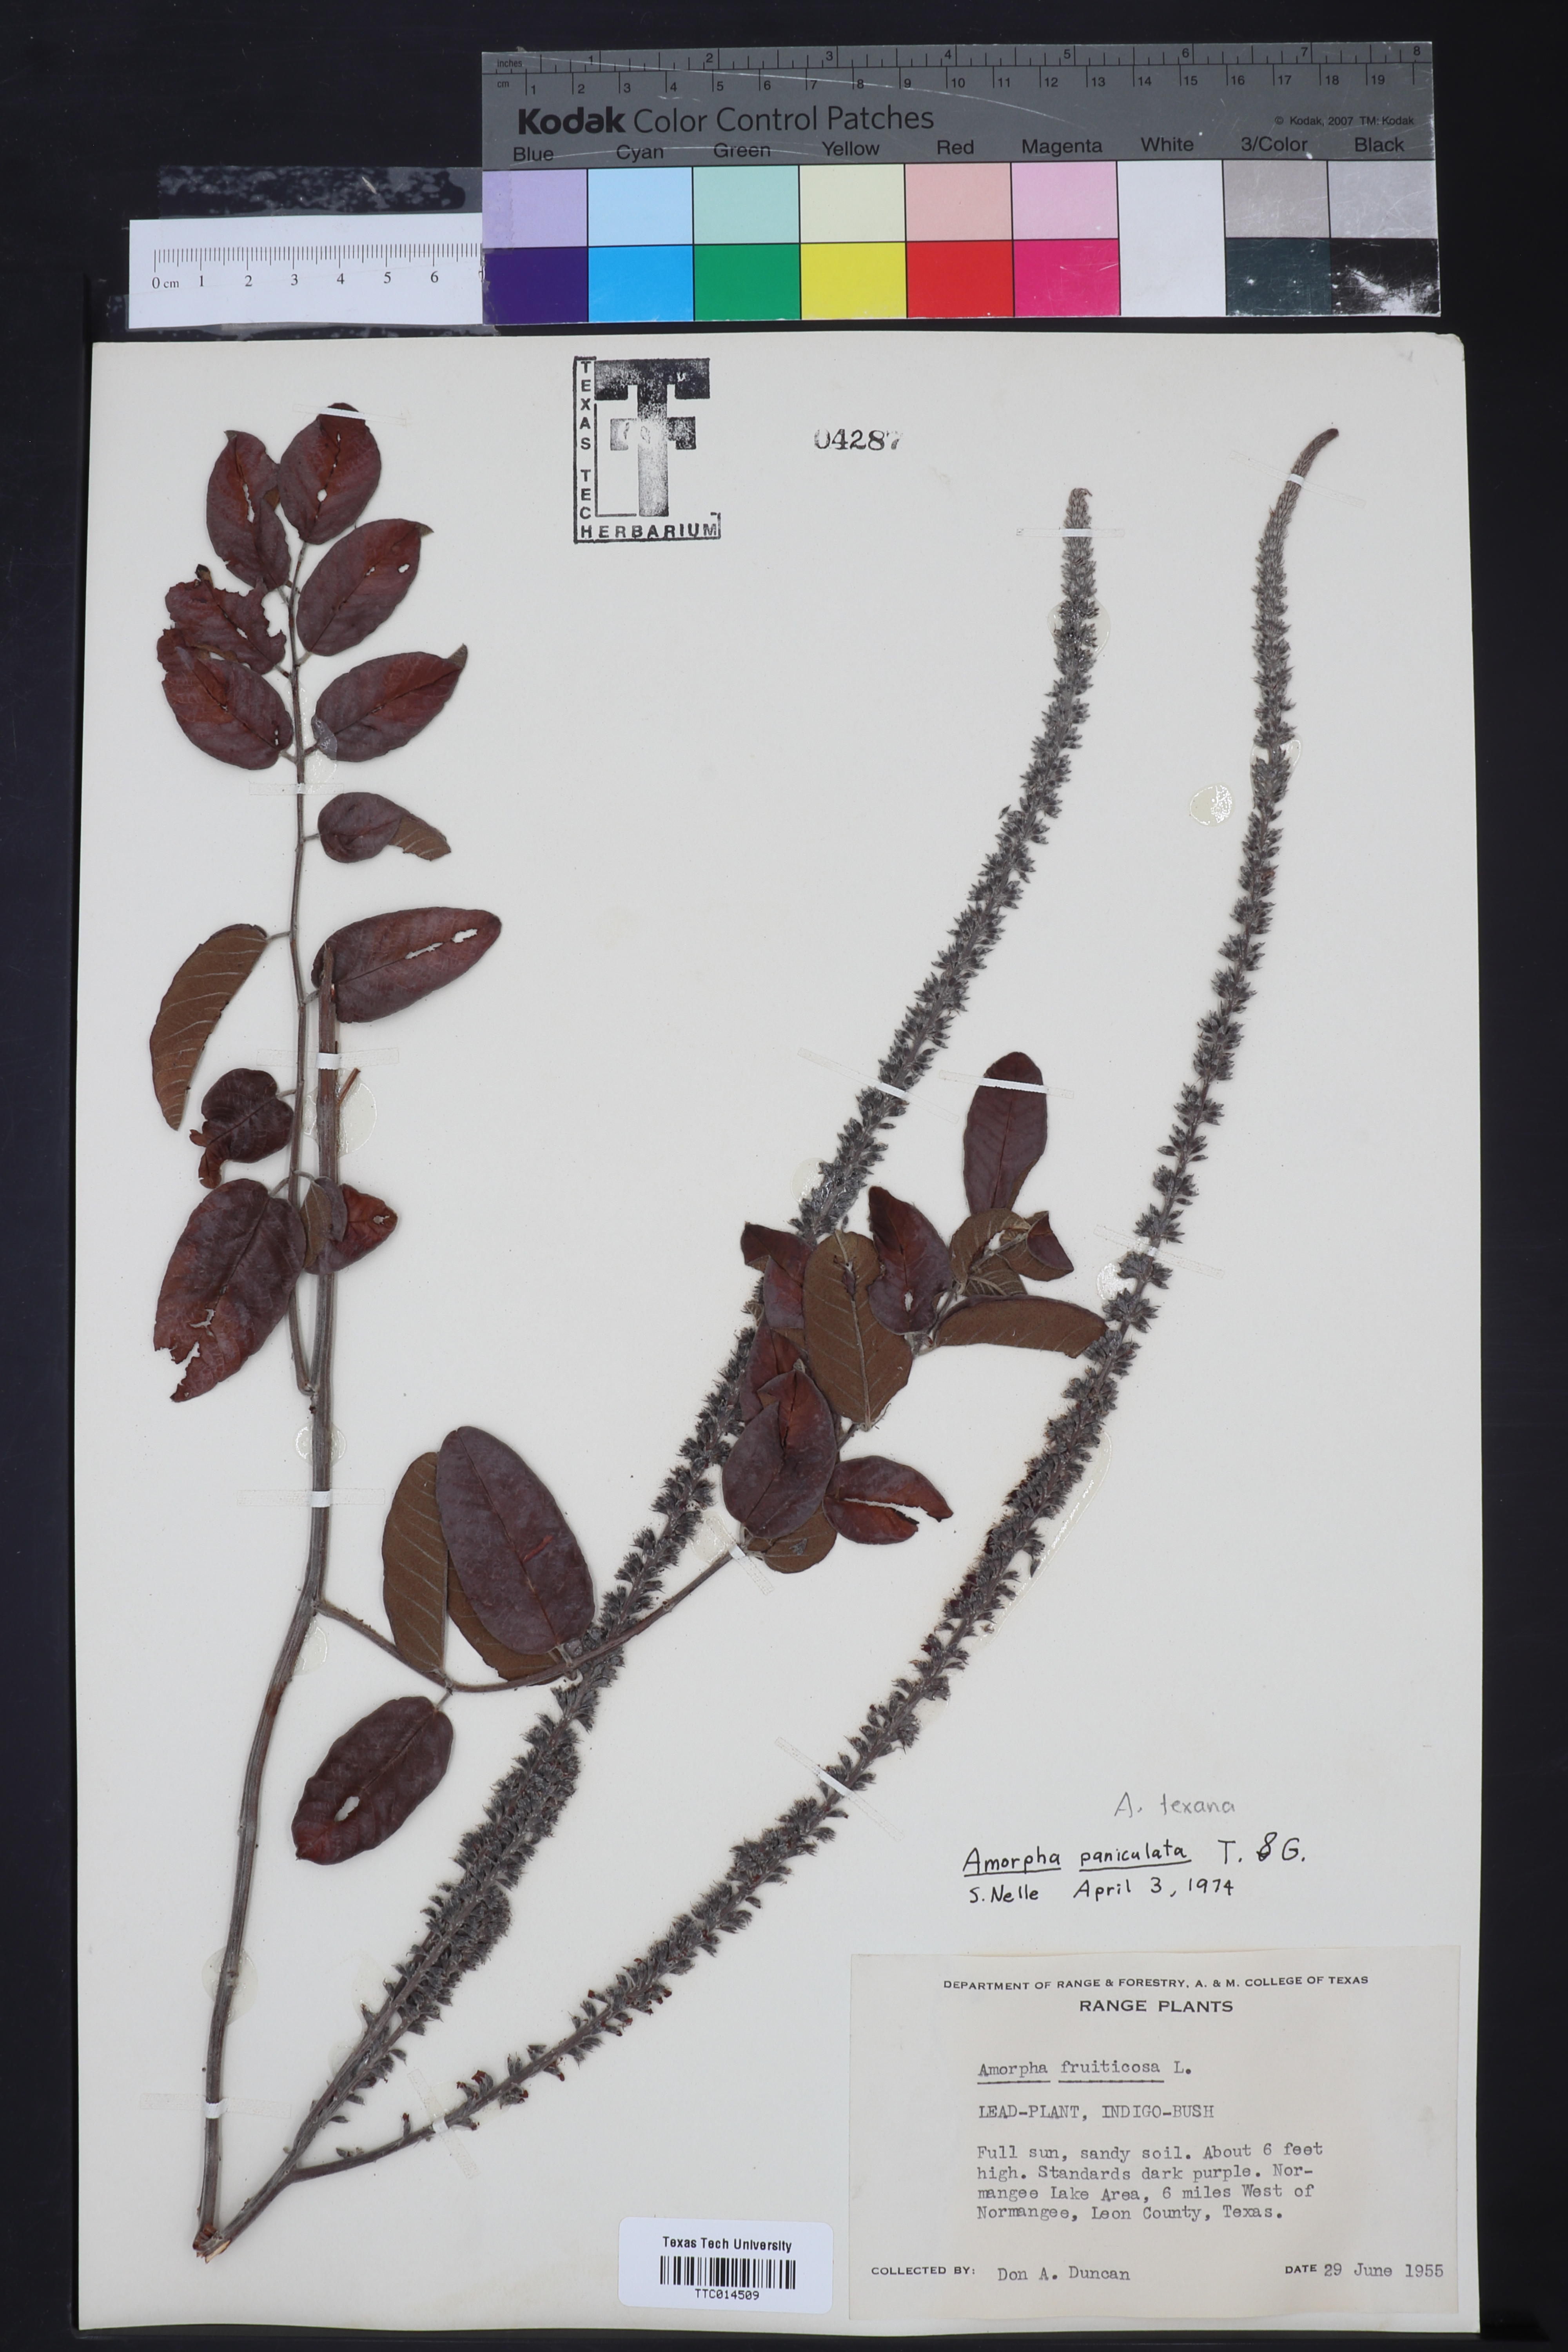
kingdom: Plantae
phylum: Tracheophyta
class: Magnoliopsida
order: Fabales
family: Fabaceae
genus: Amorpha
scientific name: Amorpha paniculata
